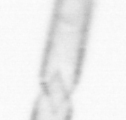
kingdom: Chromista
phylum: Ochrophyta
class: Bacillariophyceae
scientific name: Bacillariophyceae
